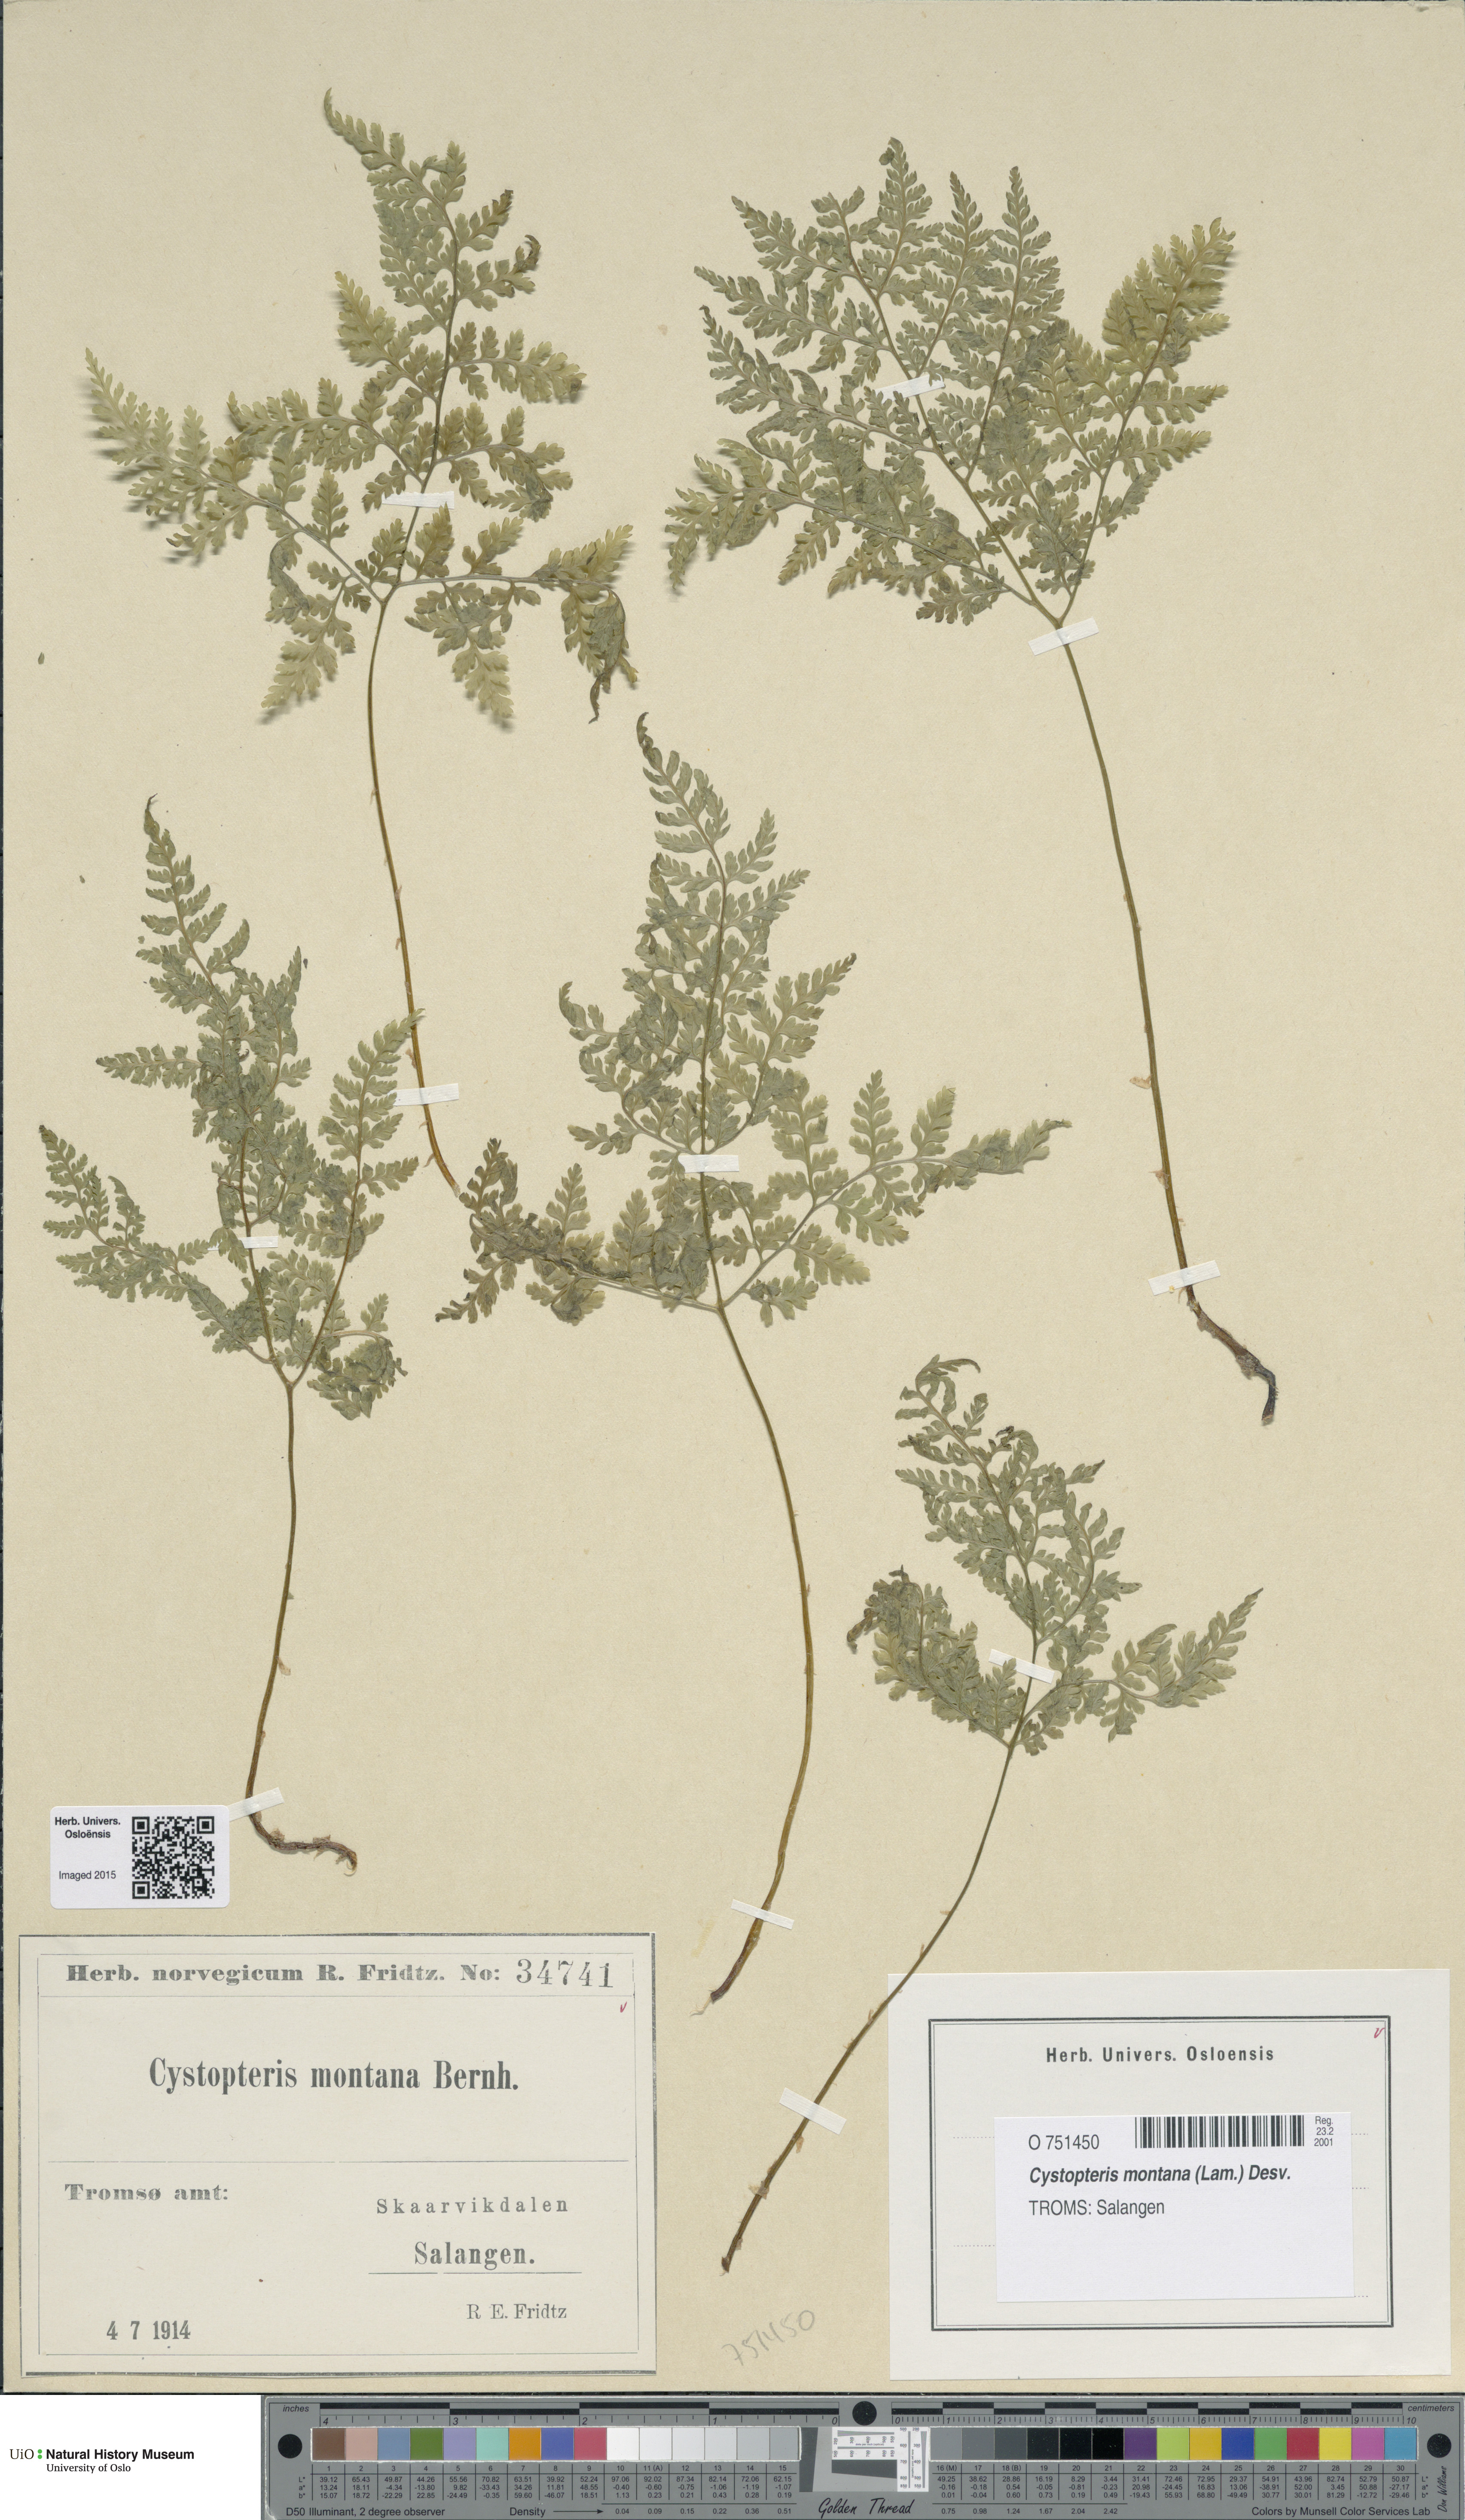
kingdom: Plantae
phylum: Tracheophyta
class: Polypodiopsida
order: Polypodiales
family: Cystopteridaceae
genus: Cystopteris
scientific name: Cystopteris montana
